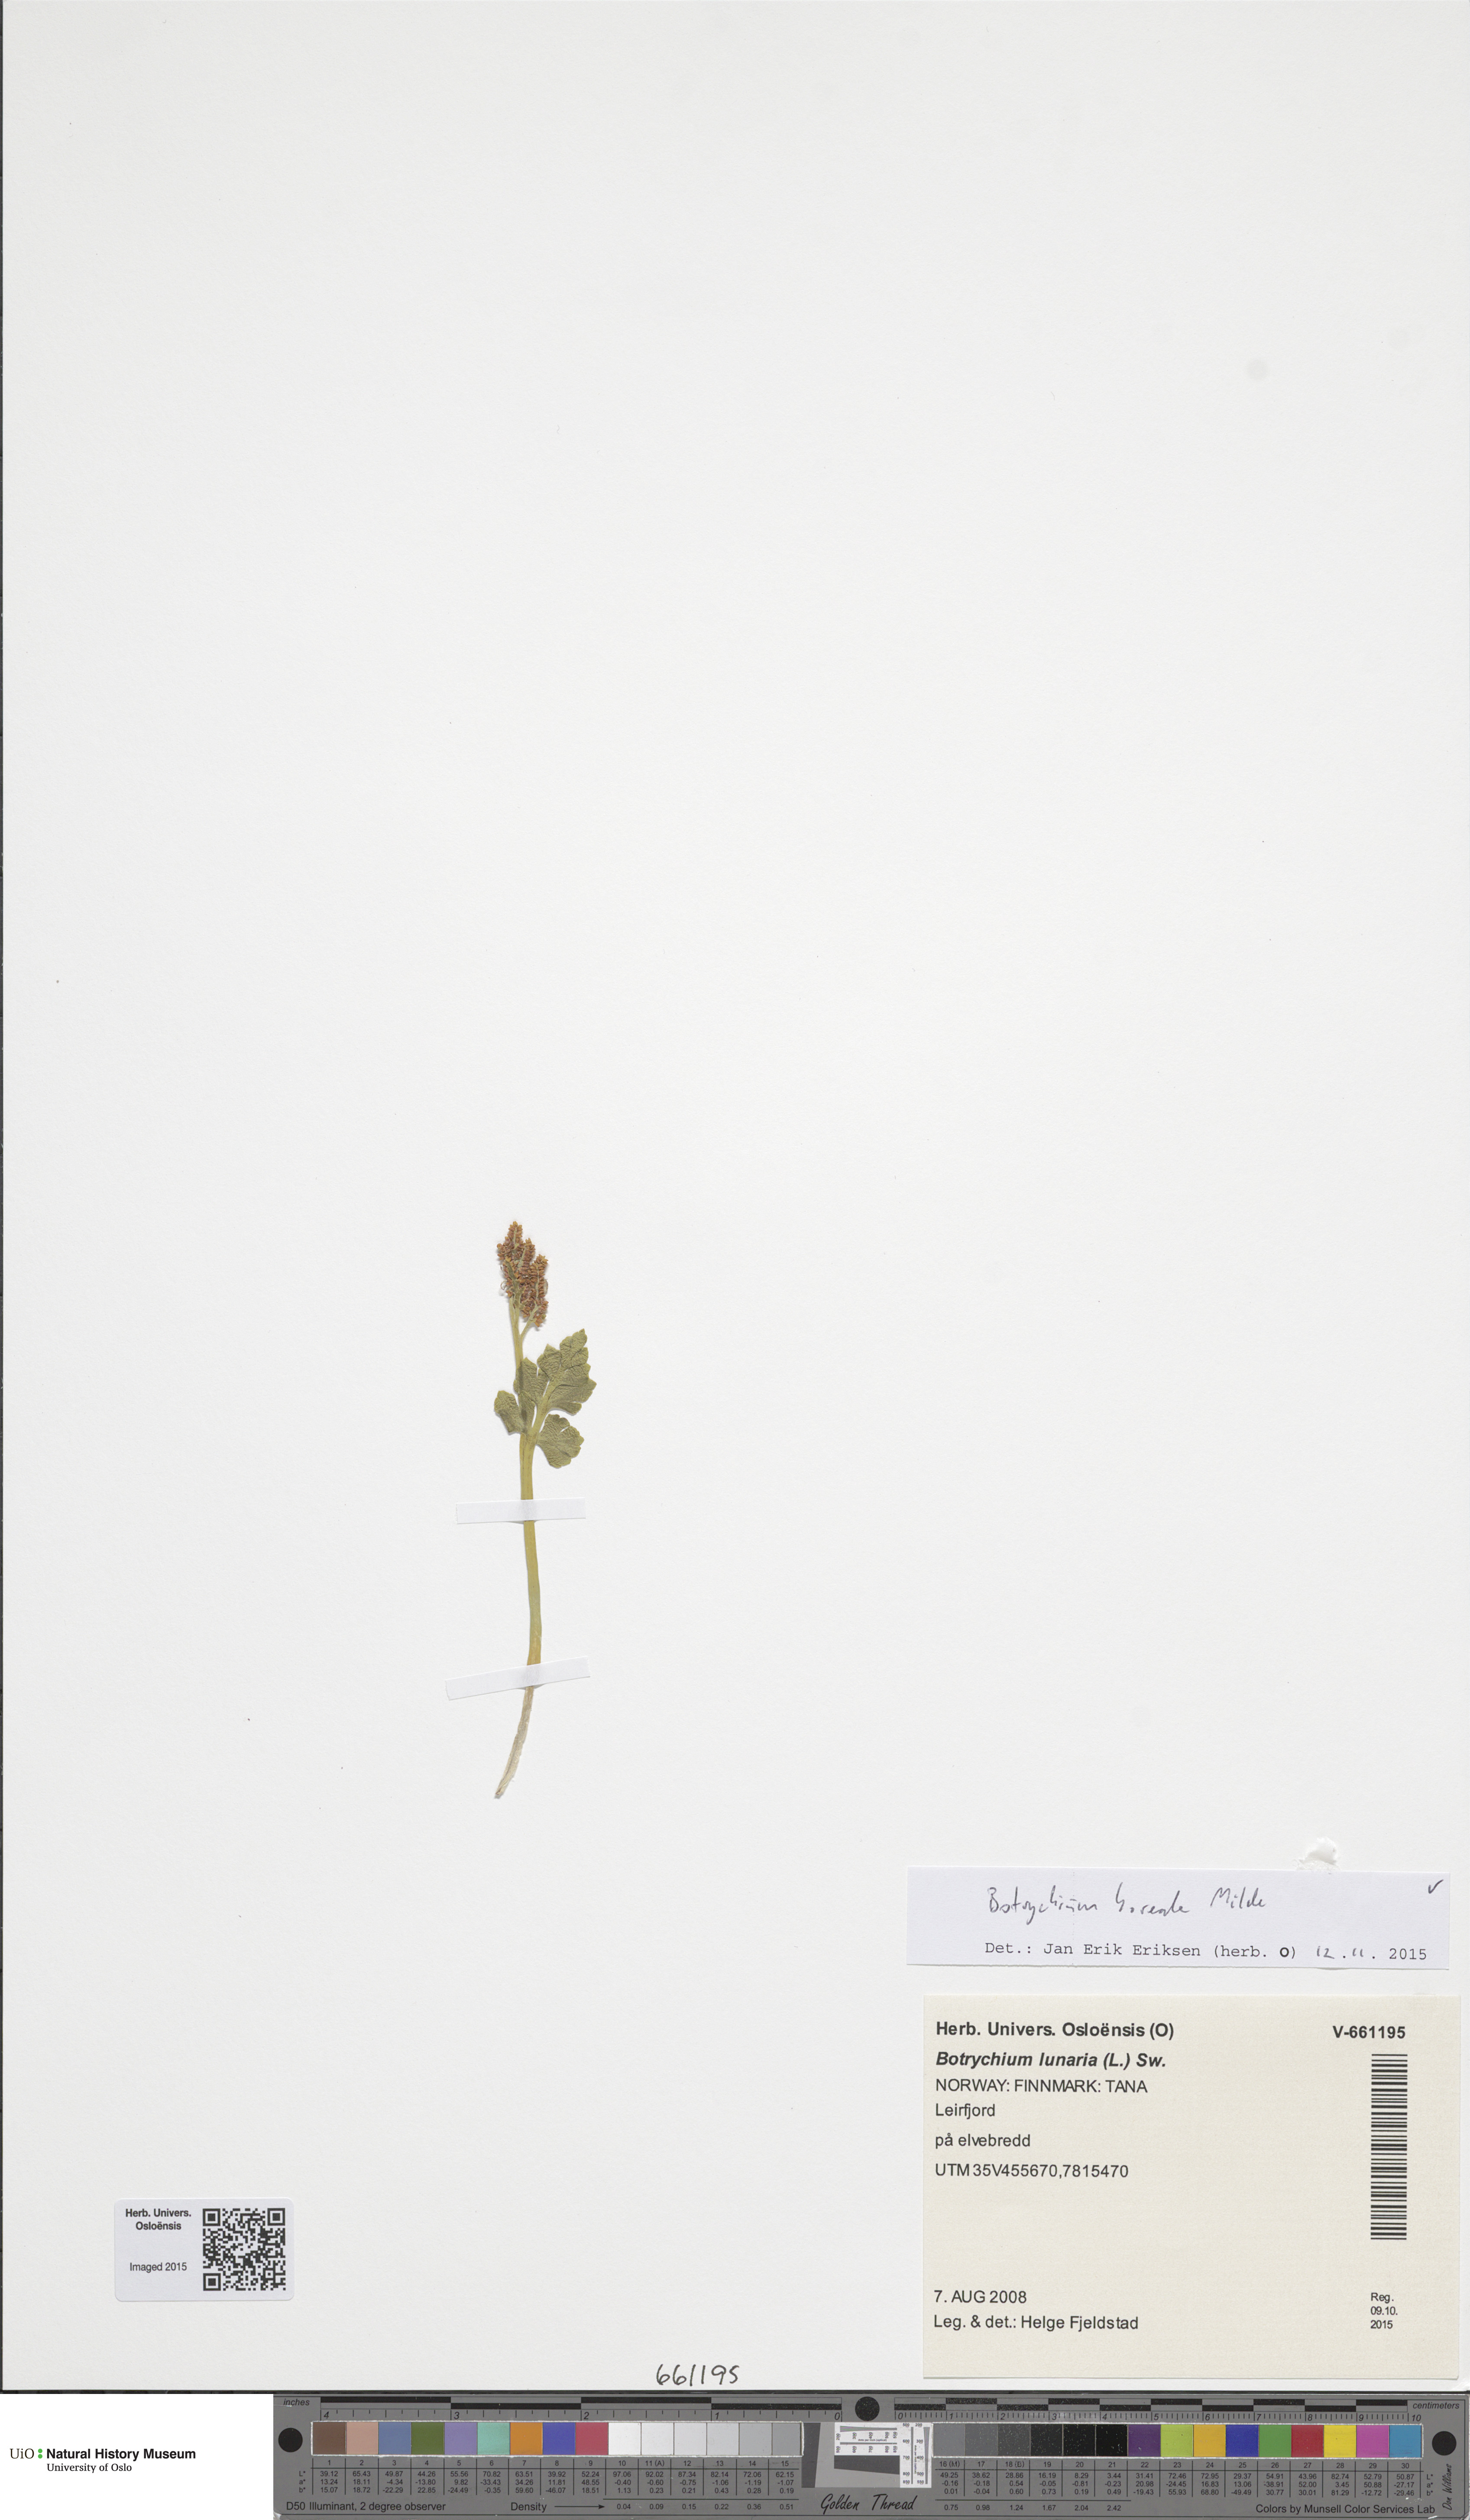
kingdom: Plantae
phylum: Tracheophyta
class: Polypodiopsida
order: Ophioglossales
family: Ophioglossaceae
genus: Botrychium
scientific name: Botrychium boreale
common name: Boreal moonwort
